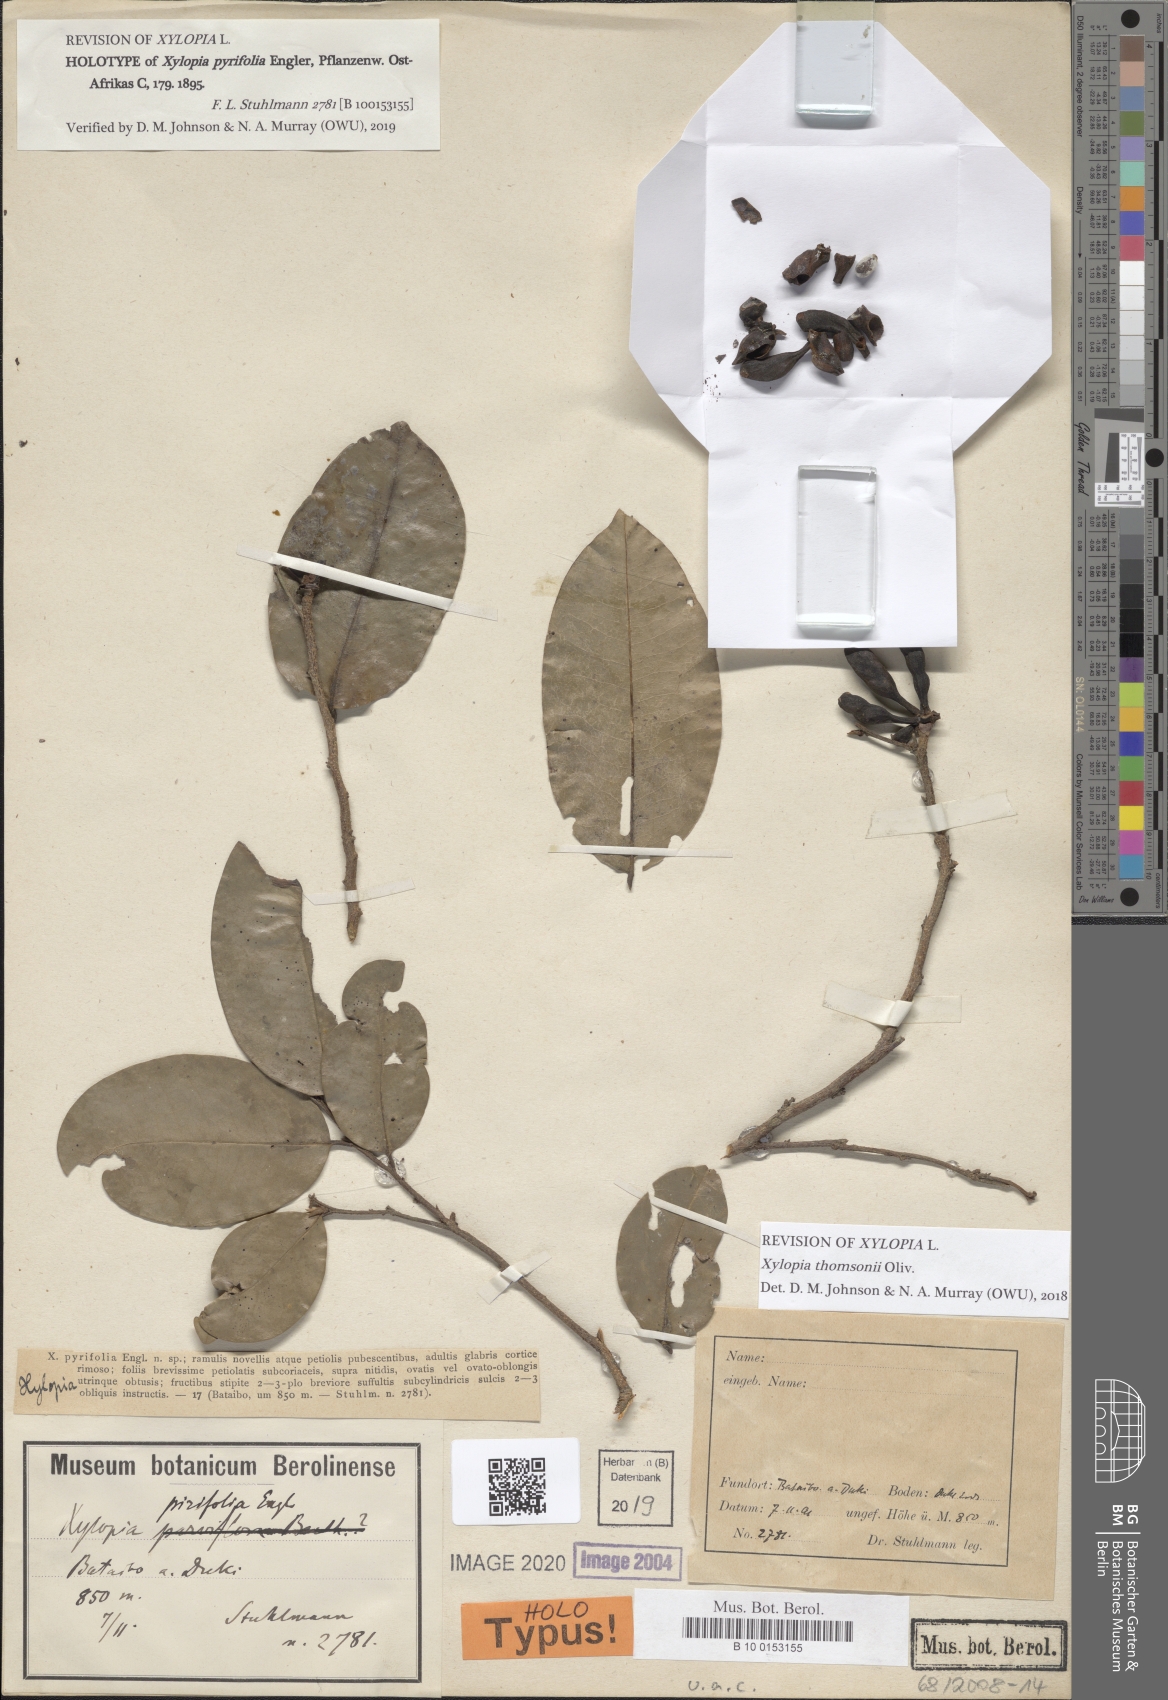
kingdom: Plantae
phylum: Tracheophyta
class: Magnoliopsida
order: Magnoliales
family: Annonaceae
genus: Xylopia
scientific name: Xylopia acutiflora
